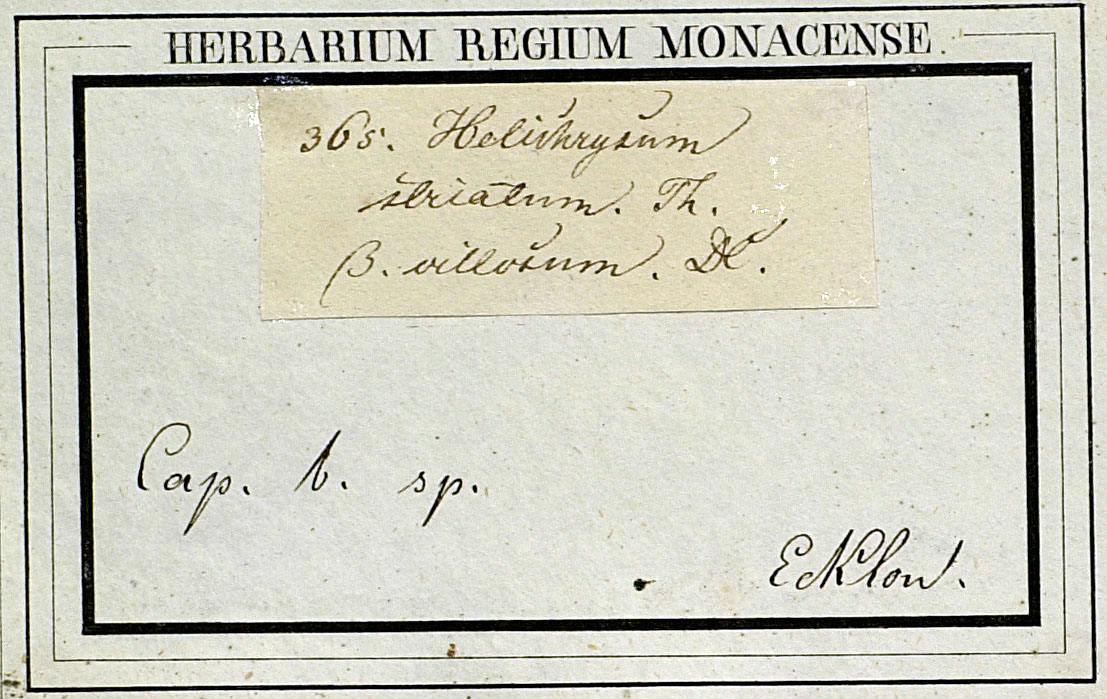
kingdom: Plantae
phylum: Tracheophyta
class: Magnoliopsida
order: Asterales
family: Asteraceae
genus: Achyranthemum
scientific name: Achyranthemum striatum
